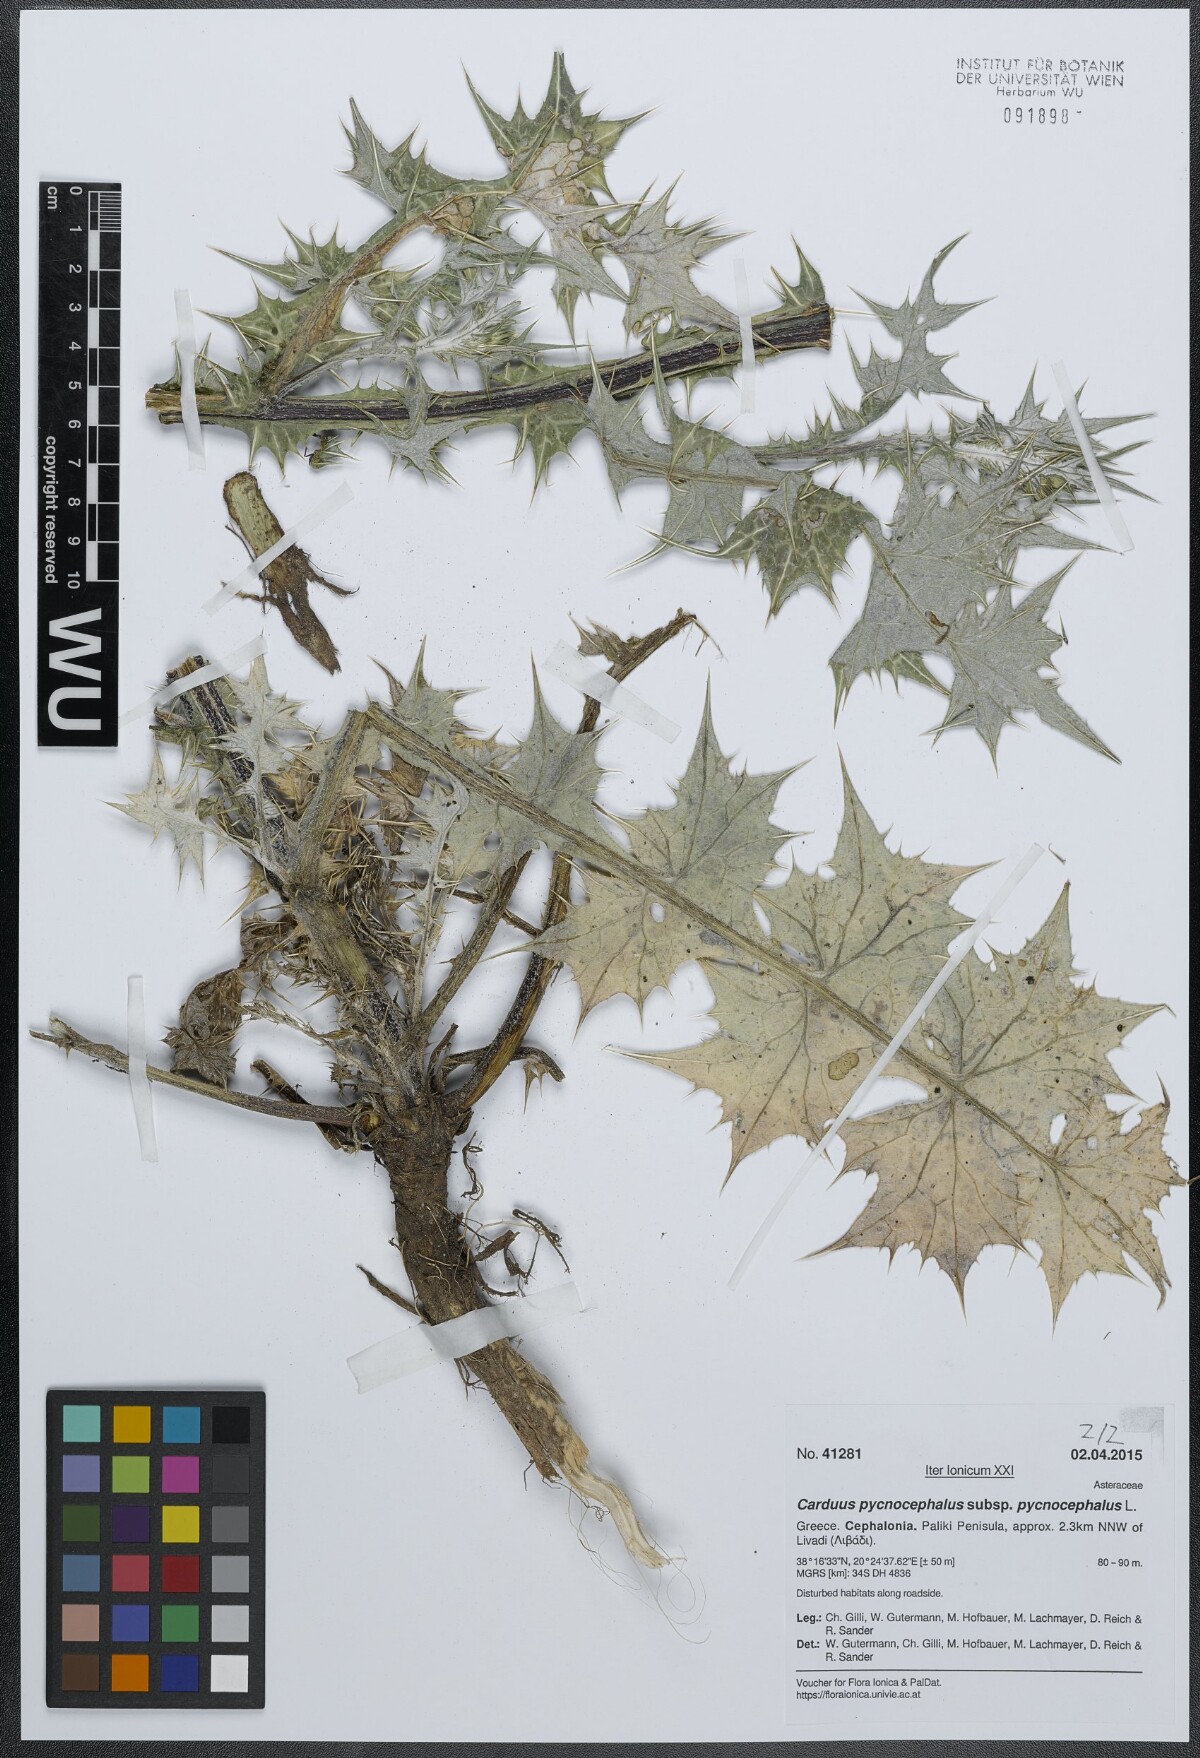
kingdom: Plantae
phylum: Tracheophyta
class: Magnoliopsida
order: Asterales
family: Asteraceae
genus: Carduus
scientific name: Carduus pycnocephalus
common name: Plymouth thistle
